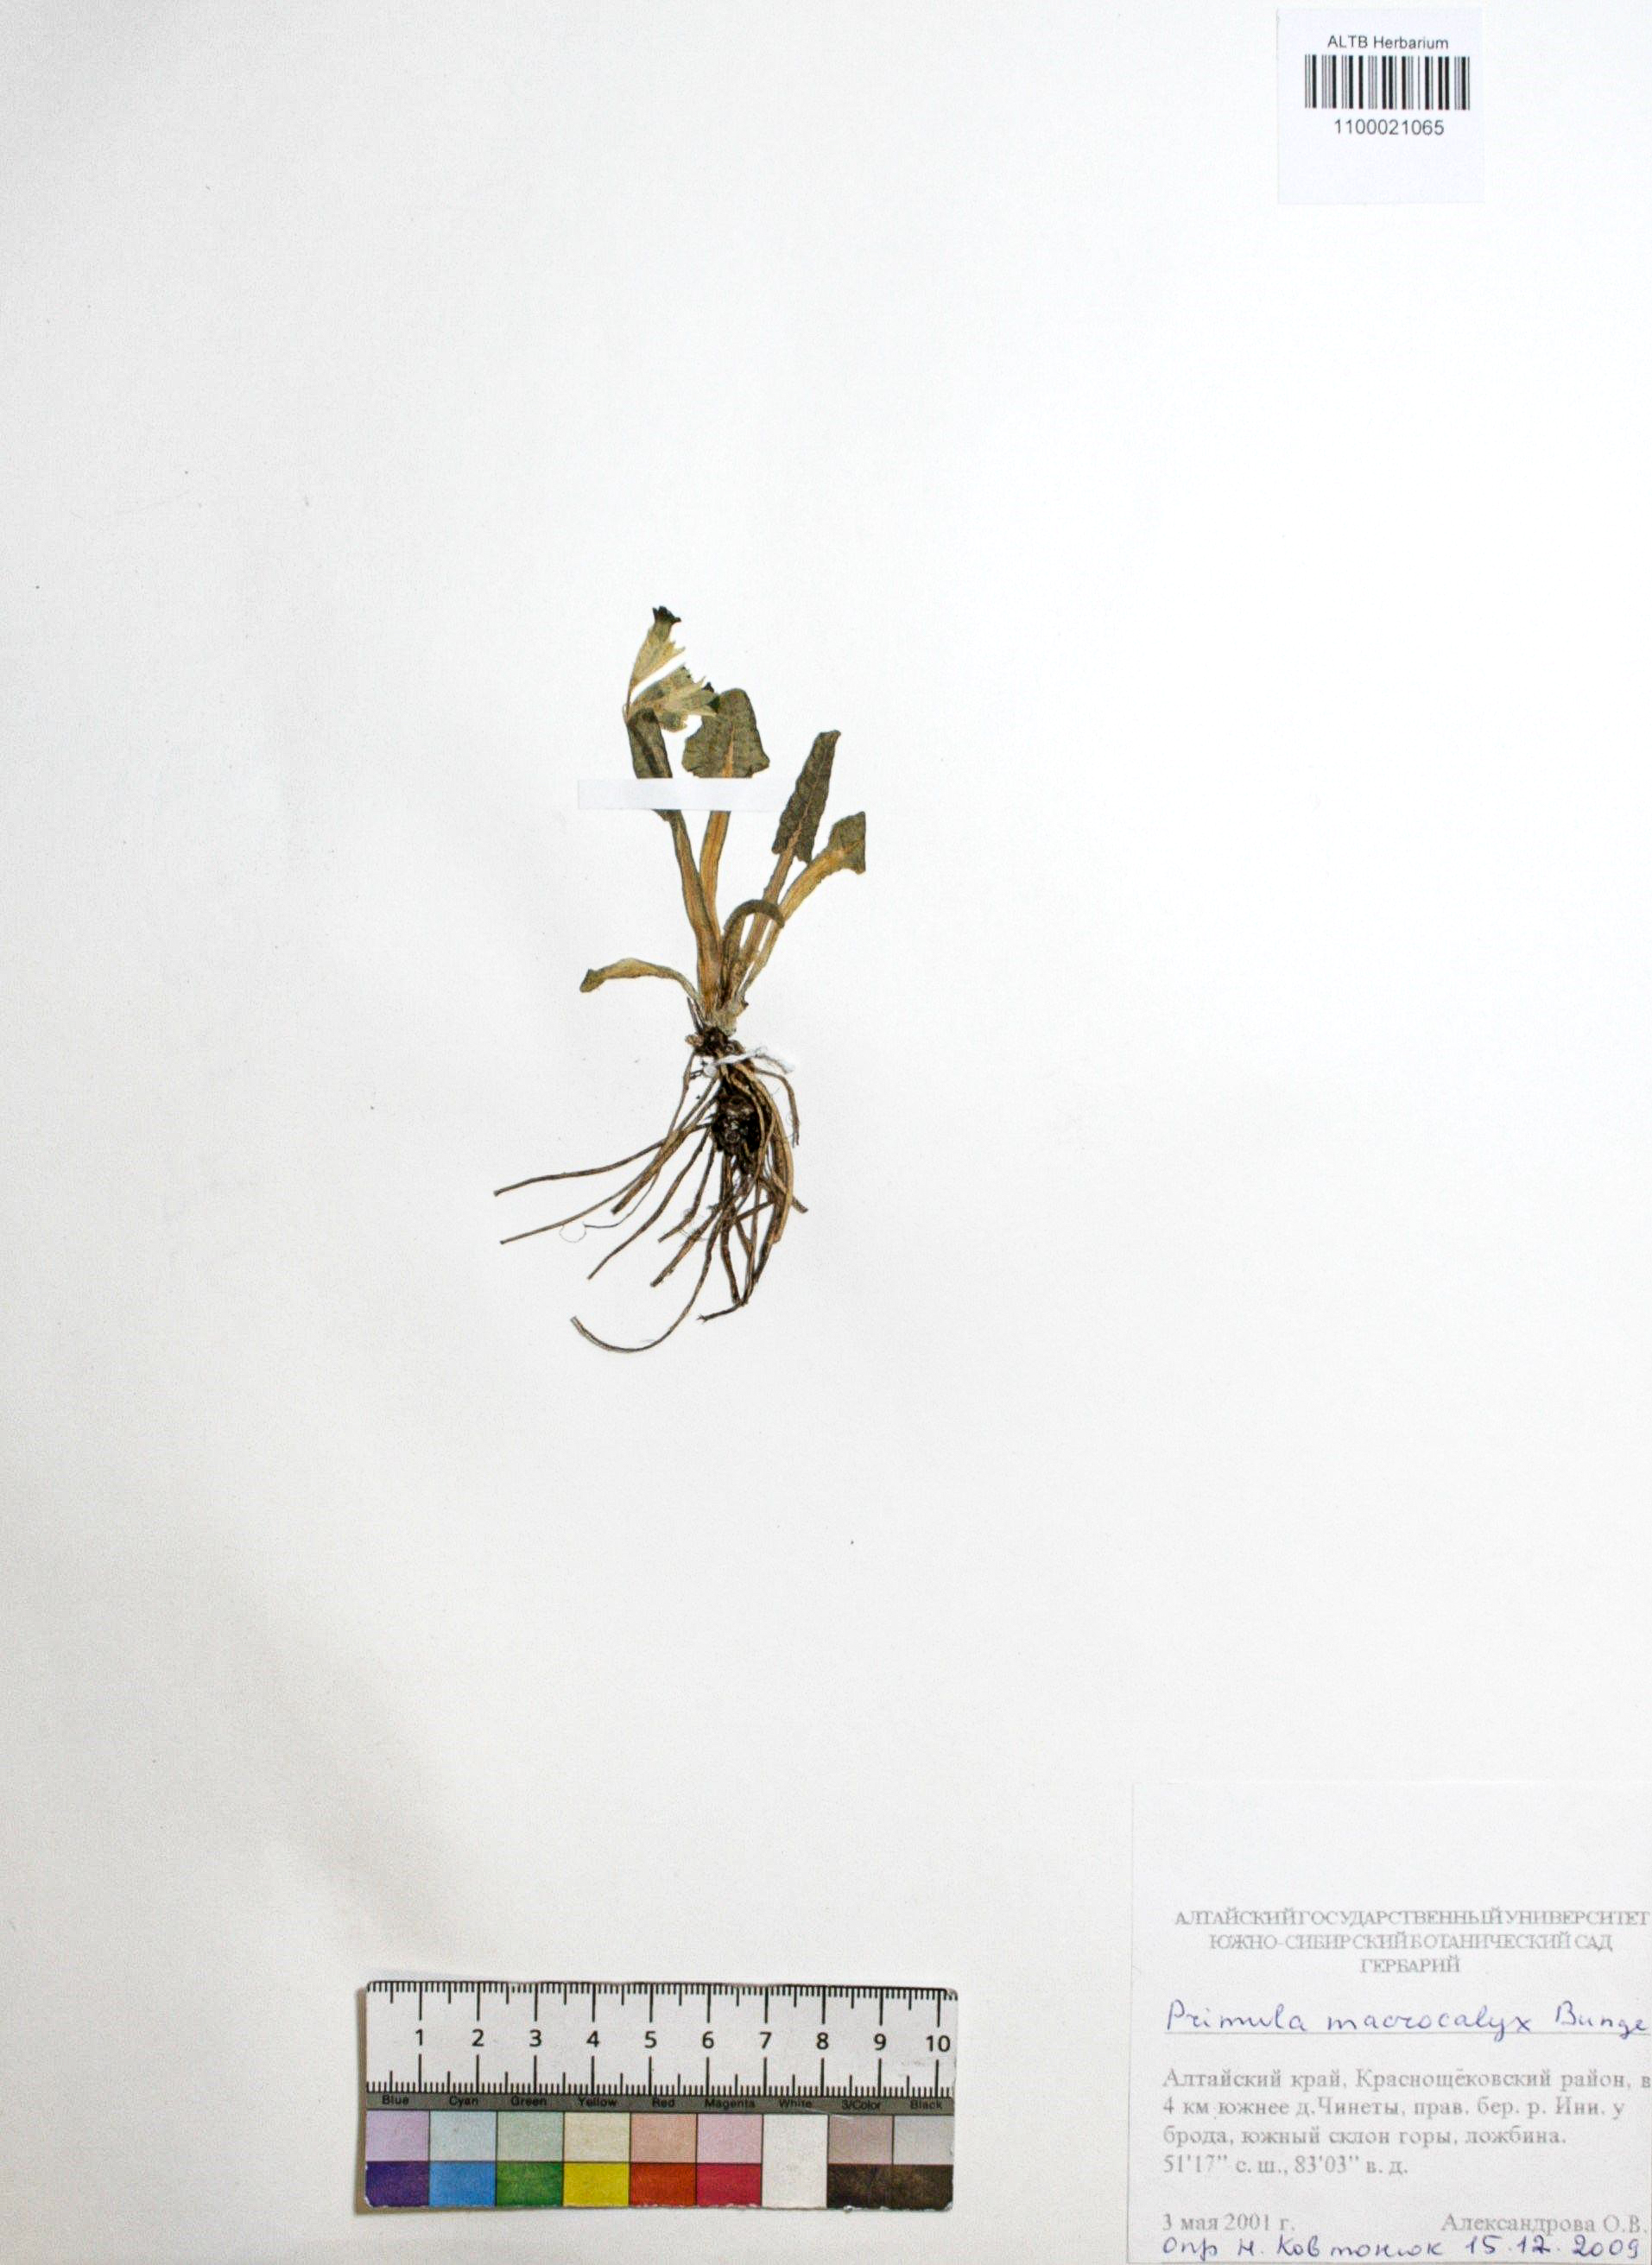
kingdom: Plantae
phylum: Tracheophyta
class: Magnoliopsida
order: Ericales
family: Primulaceae
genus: Primula
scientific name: Primula veris
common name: Cowslip
